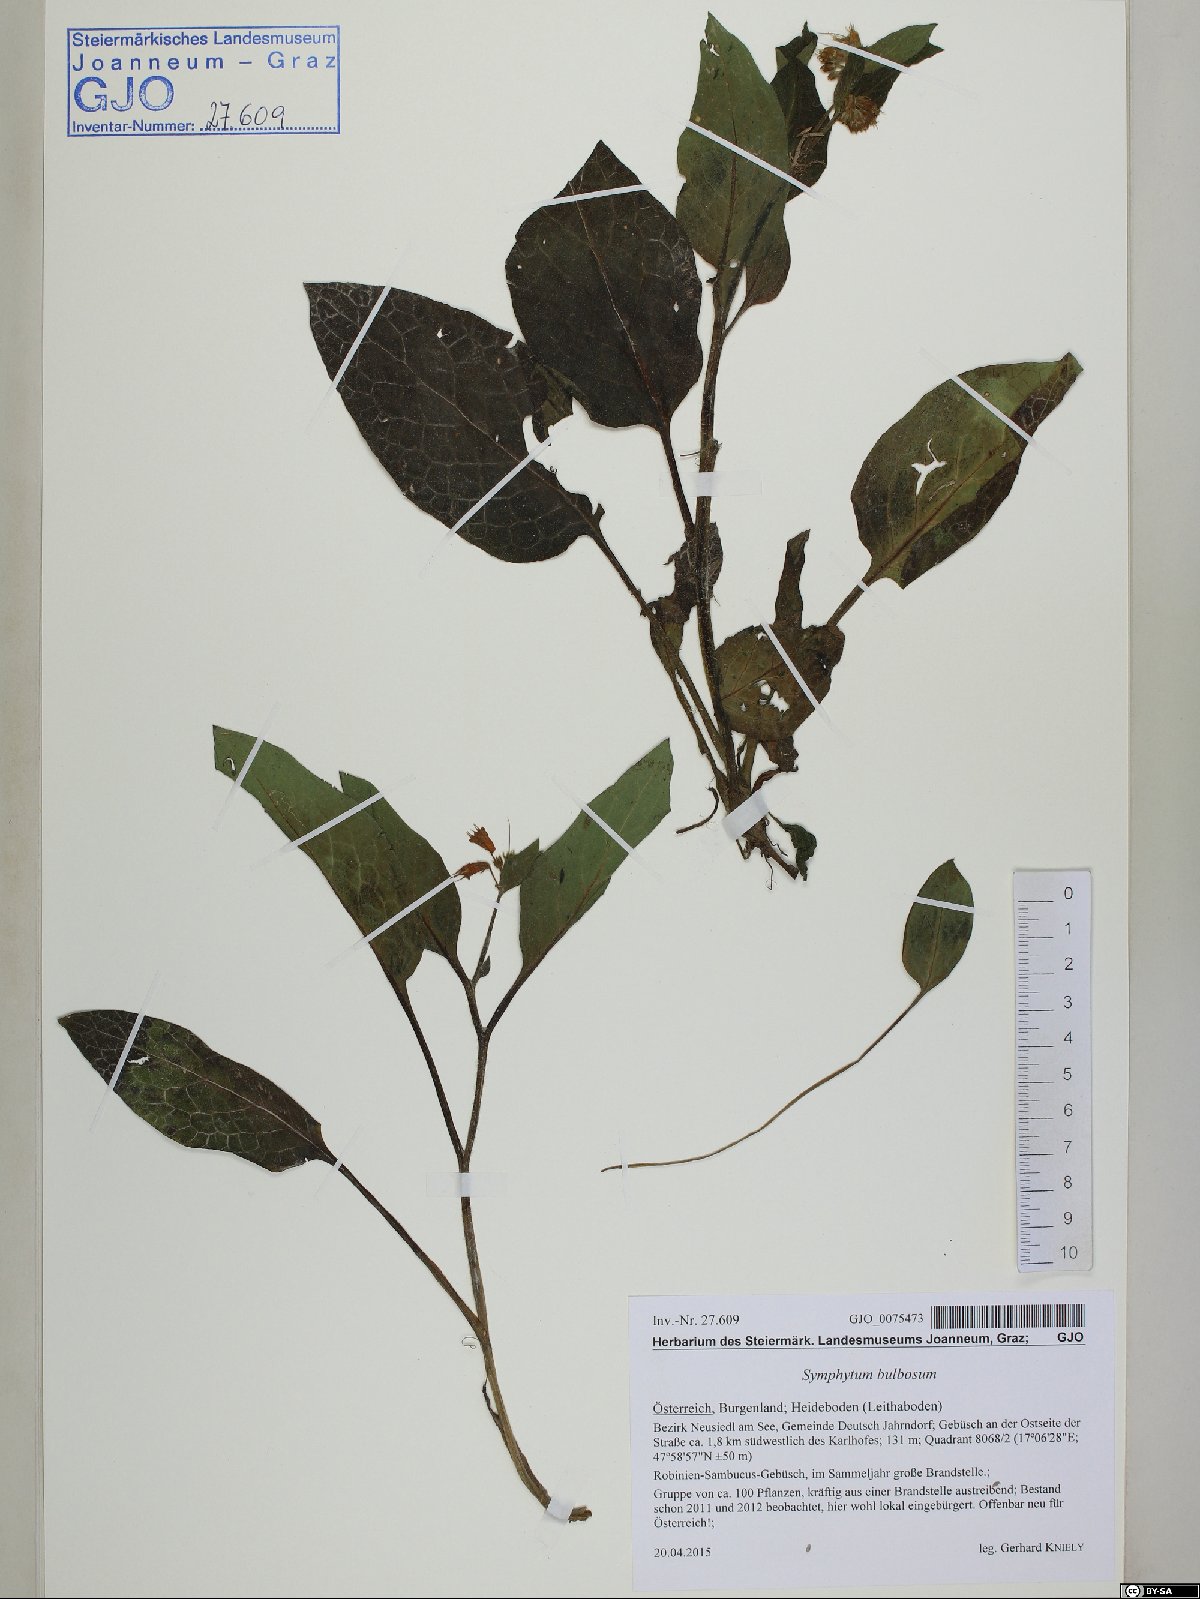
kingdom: Plantae
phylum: Tracheophyta
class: Magnoliopsida
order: Boraginales
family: Boraginaceae
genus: Symphytum
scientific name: Symphytum bulbosum
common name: Bulbous comfrey
